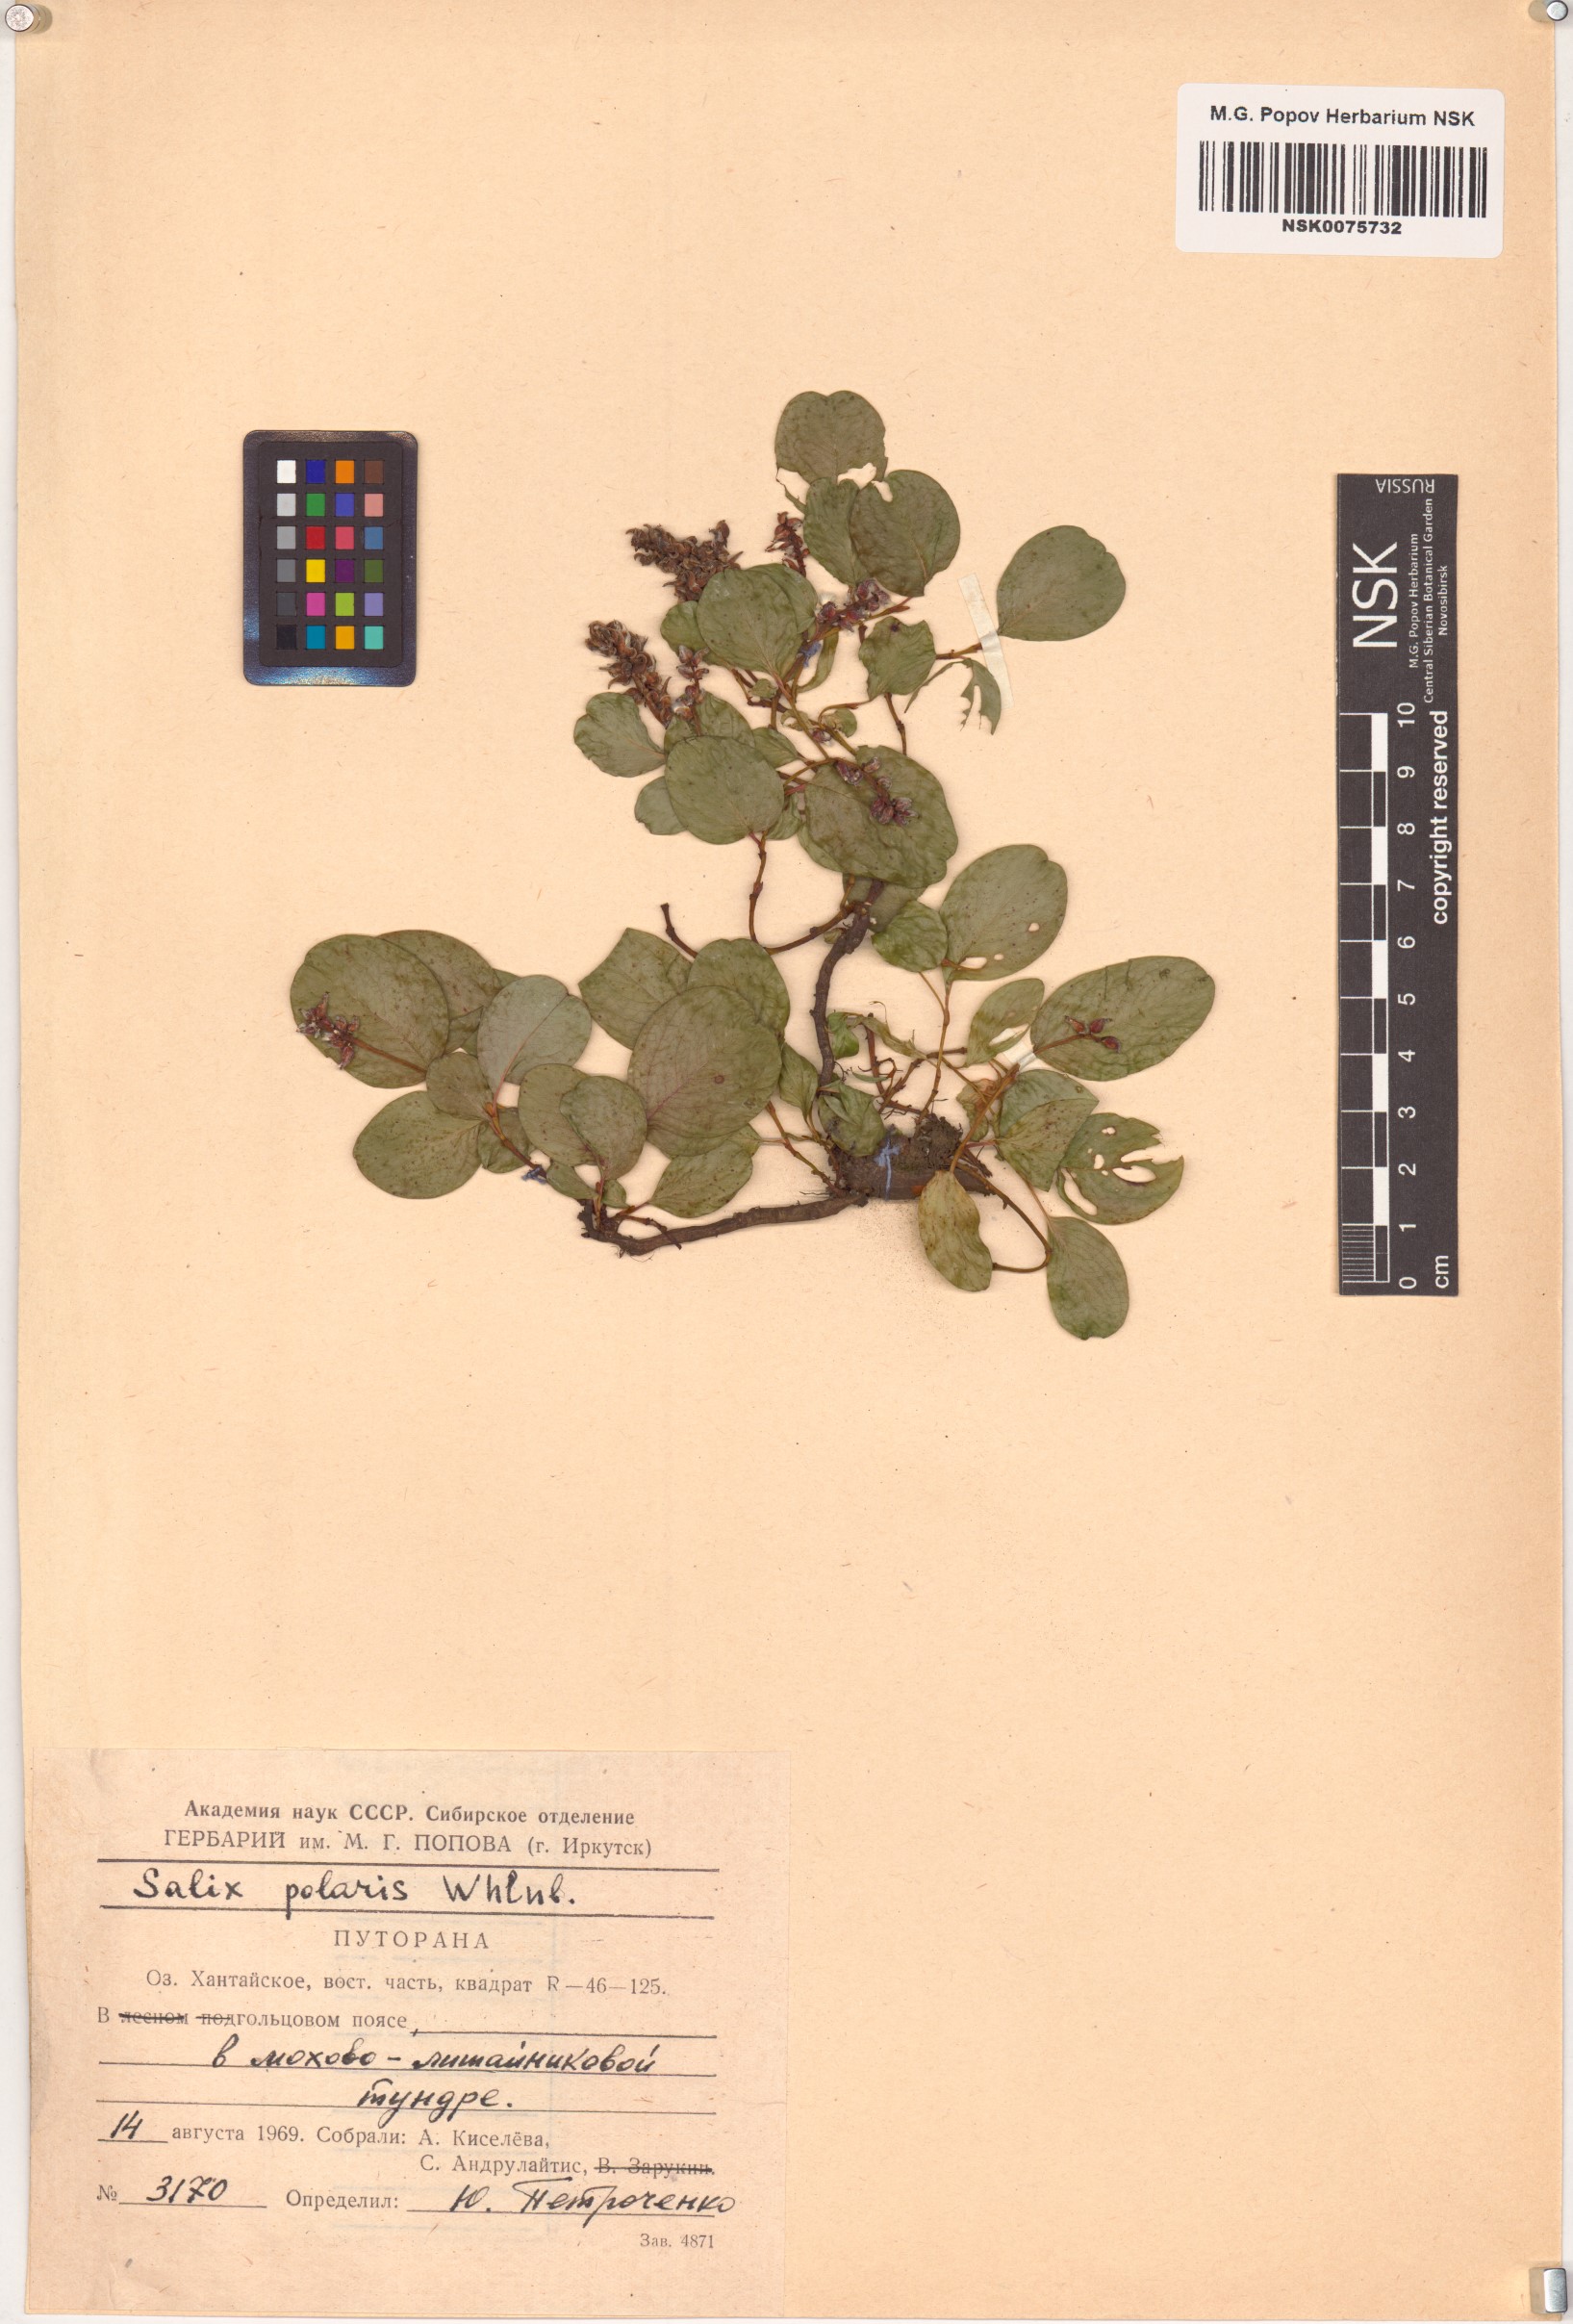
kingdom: Plantae
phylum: Tracheophyta
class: Magnoliopsida
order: Malpighiales
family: Salicaceae
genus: Salix
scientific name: Salix polaris
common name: Polar willow
